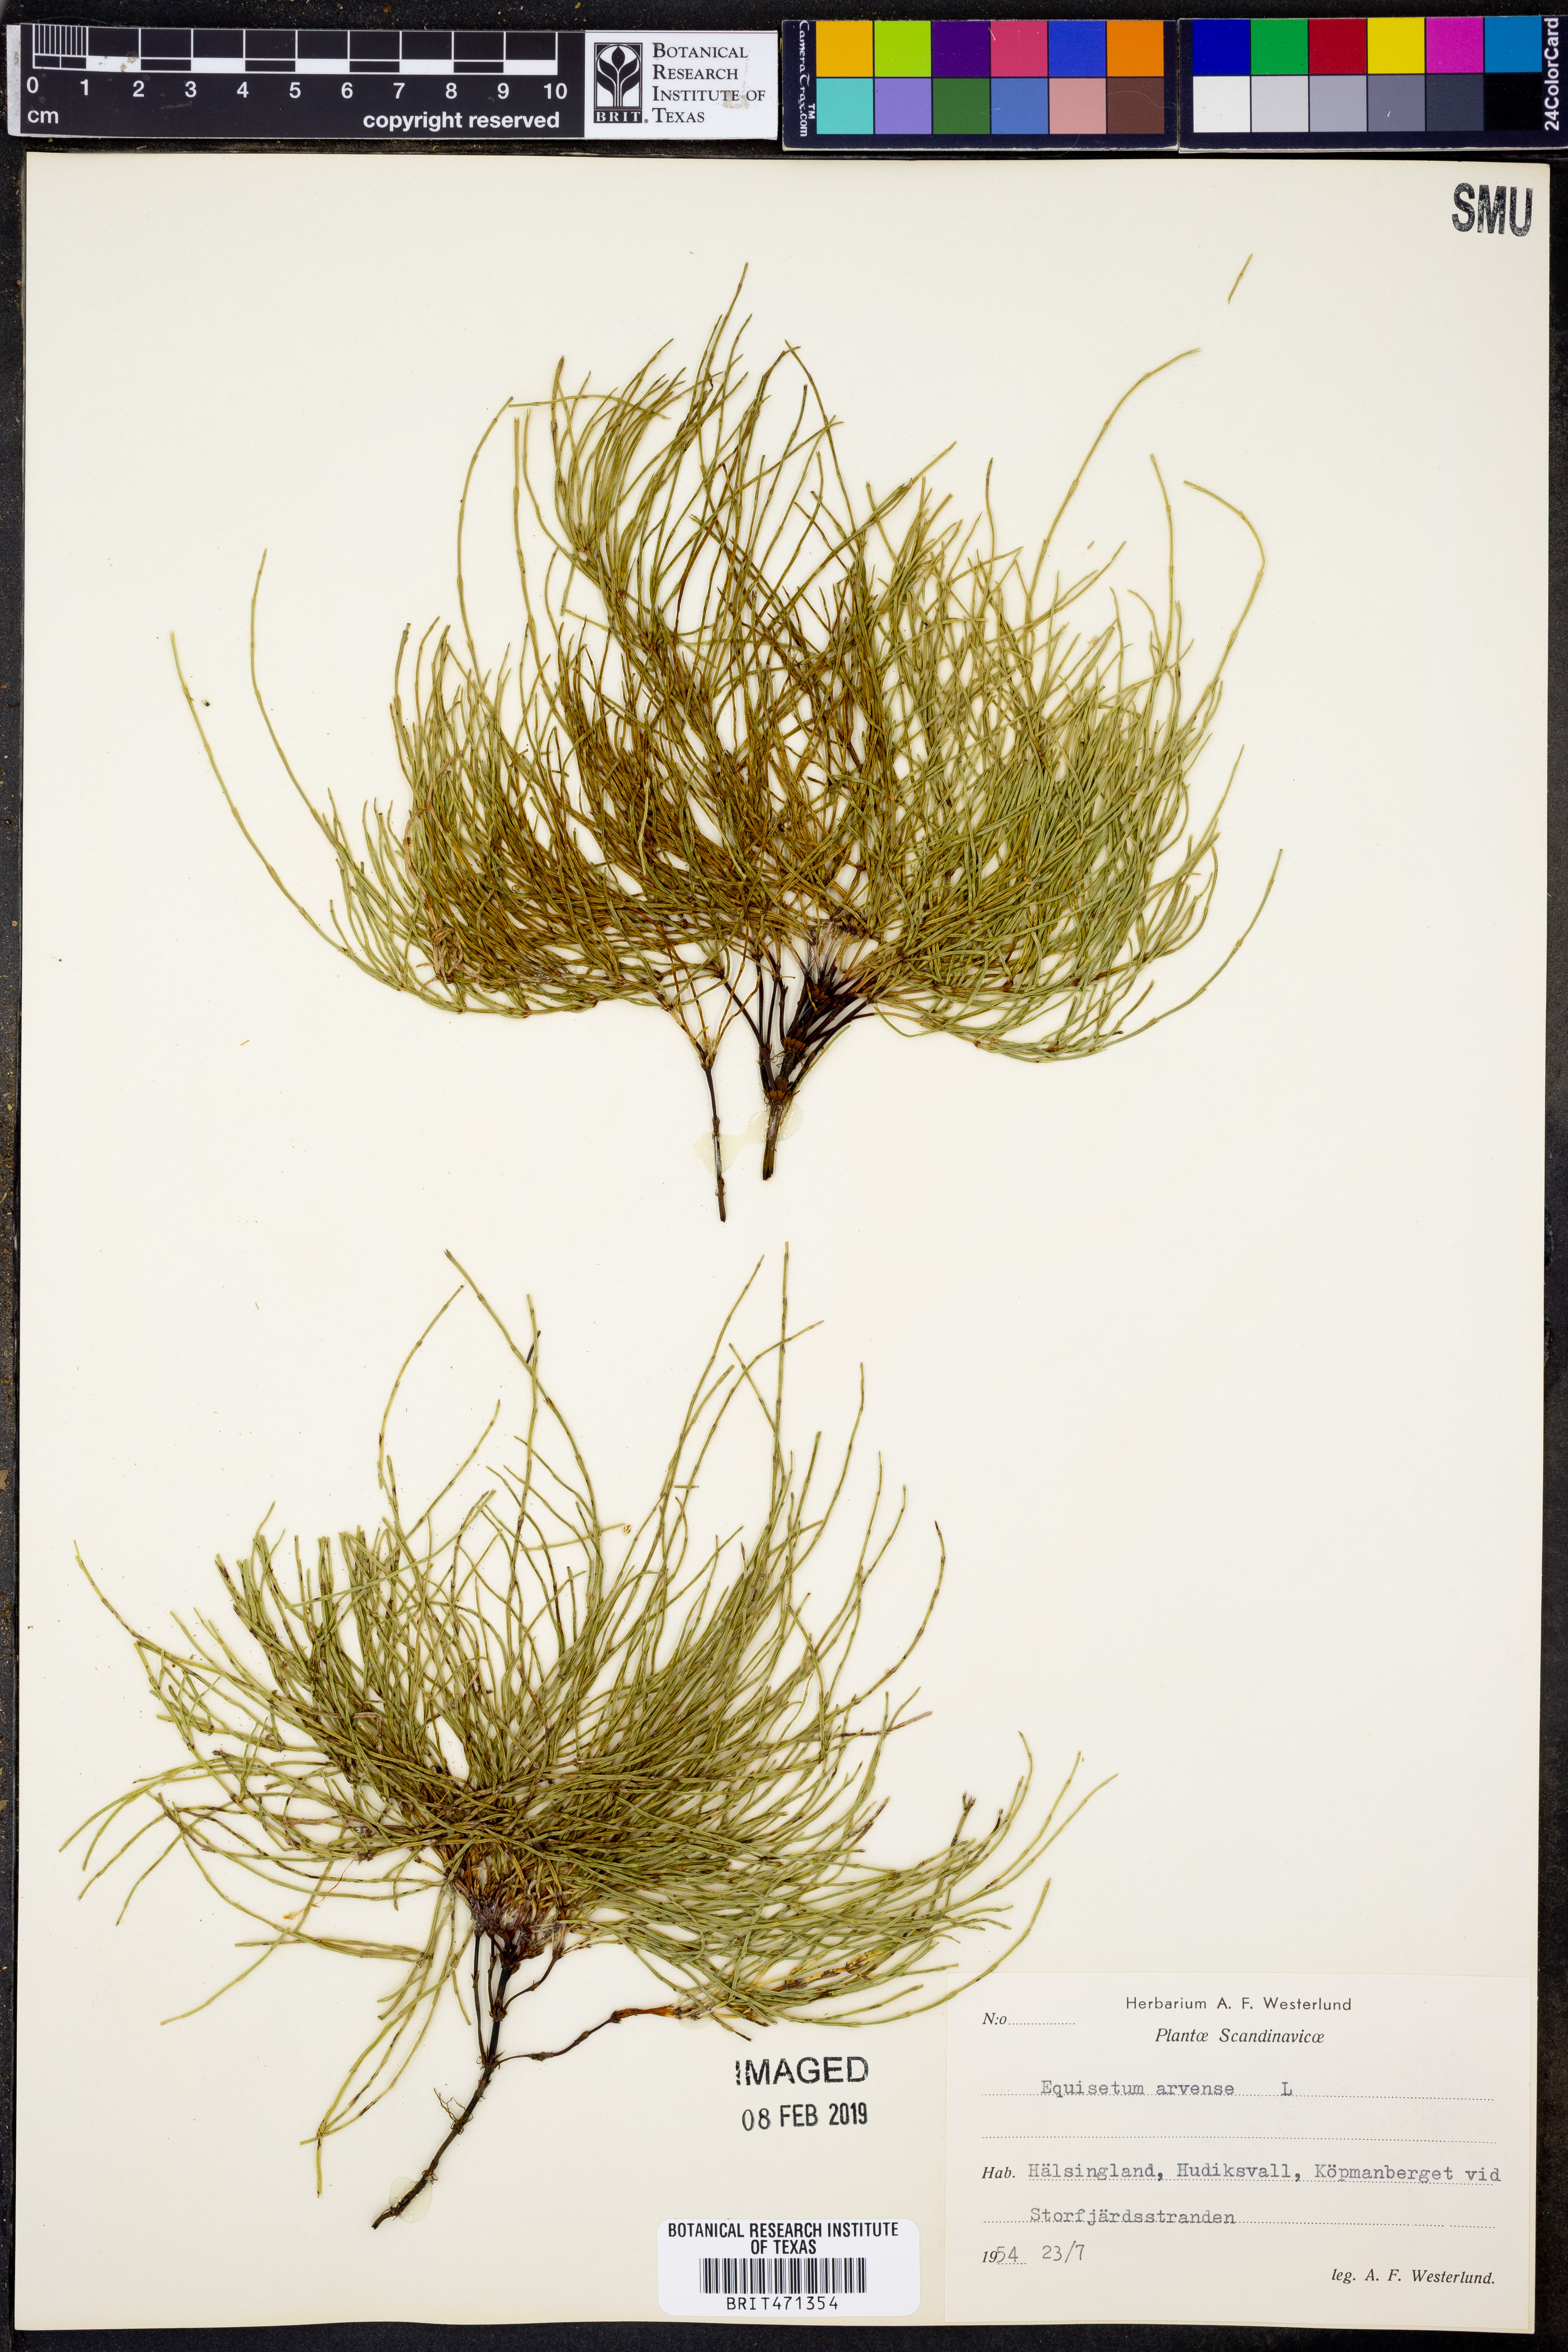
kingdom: Plantae
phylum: Tracheophyta
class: Polypodiopsida
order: Equisetales
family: Equisetaceae
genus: Equisetum
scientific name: Equisetum arvense
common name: Field horsetail
